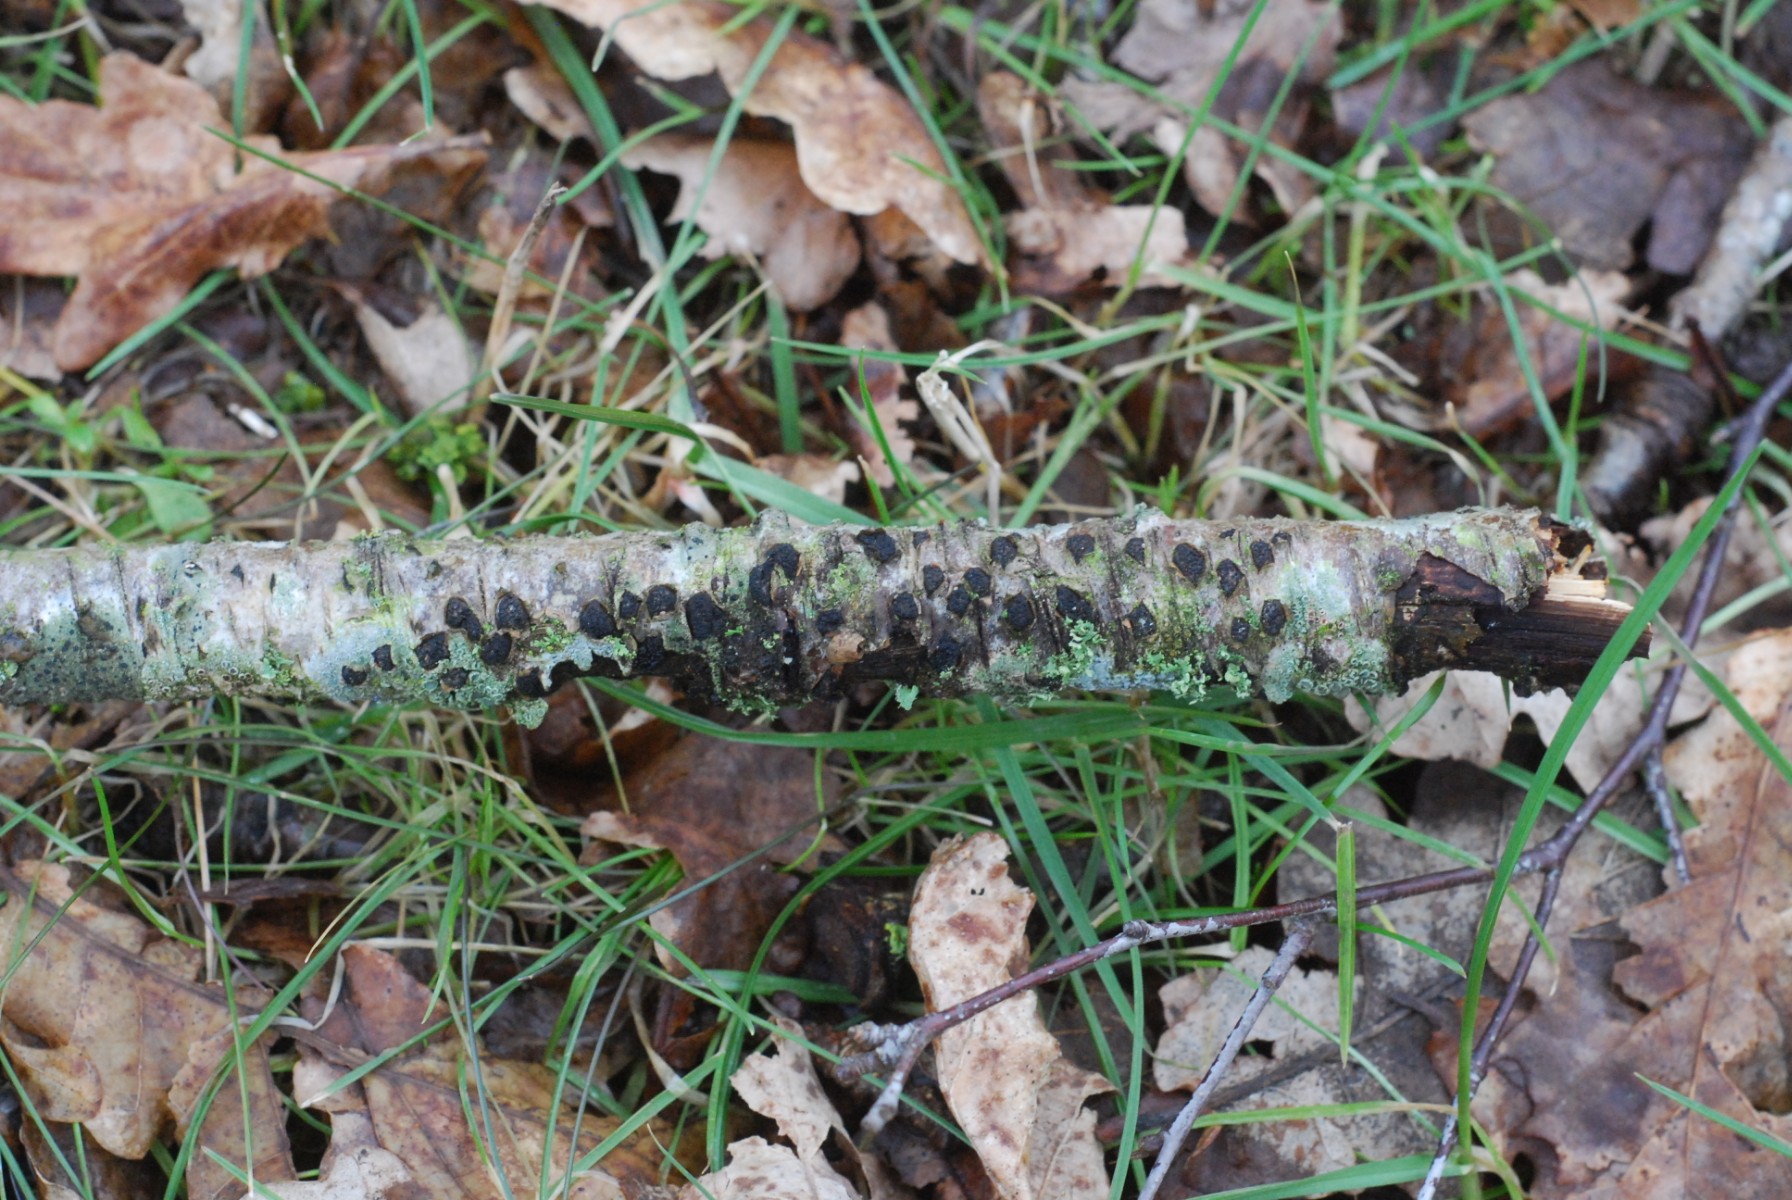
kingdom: Fungi
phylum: Ascomycota
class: Sordariomycetes
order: Xylariales
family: Diatrypaceae
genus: Diatrypella
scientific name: Diatrypella quercina
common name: ege-kulskorpe
